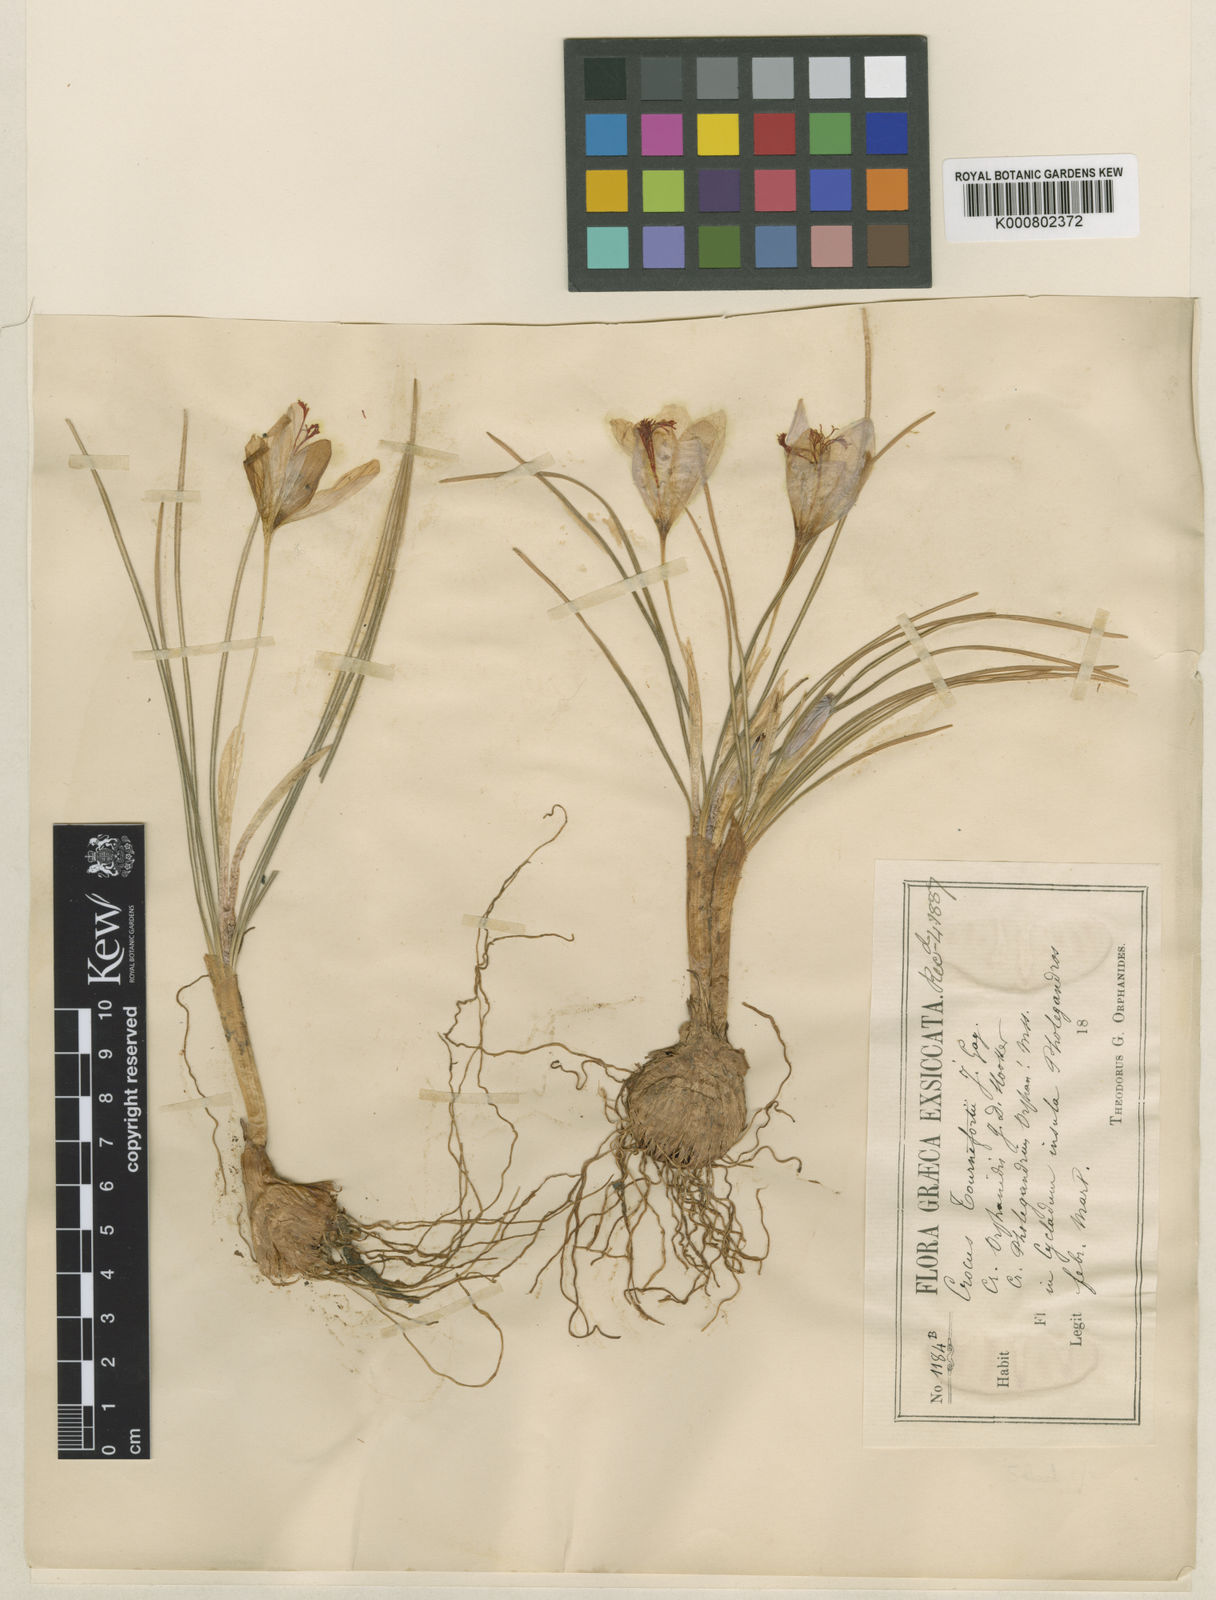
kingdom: Plantae
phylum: Tracheophyta
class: Liliopsida
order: Asparagales
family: Iridaceae
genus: Crocus
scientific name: Crocus tournefortii
